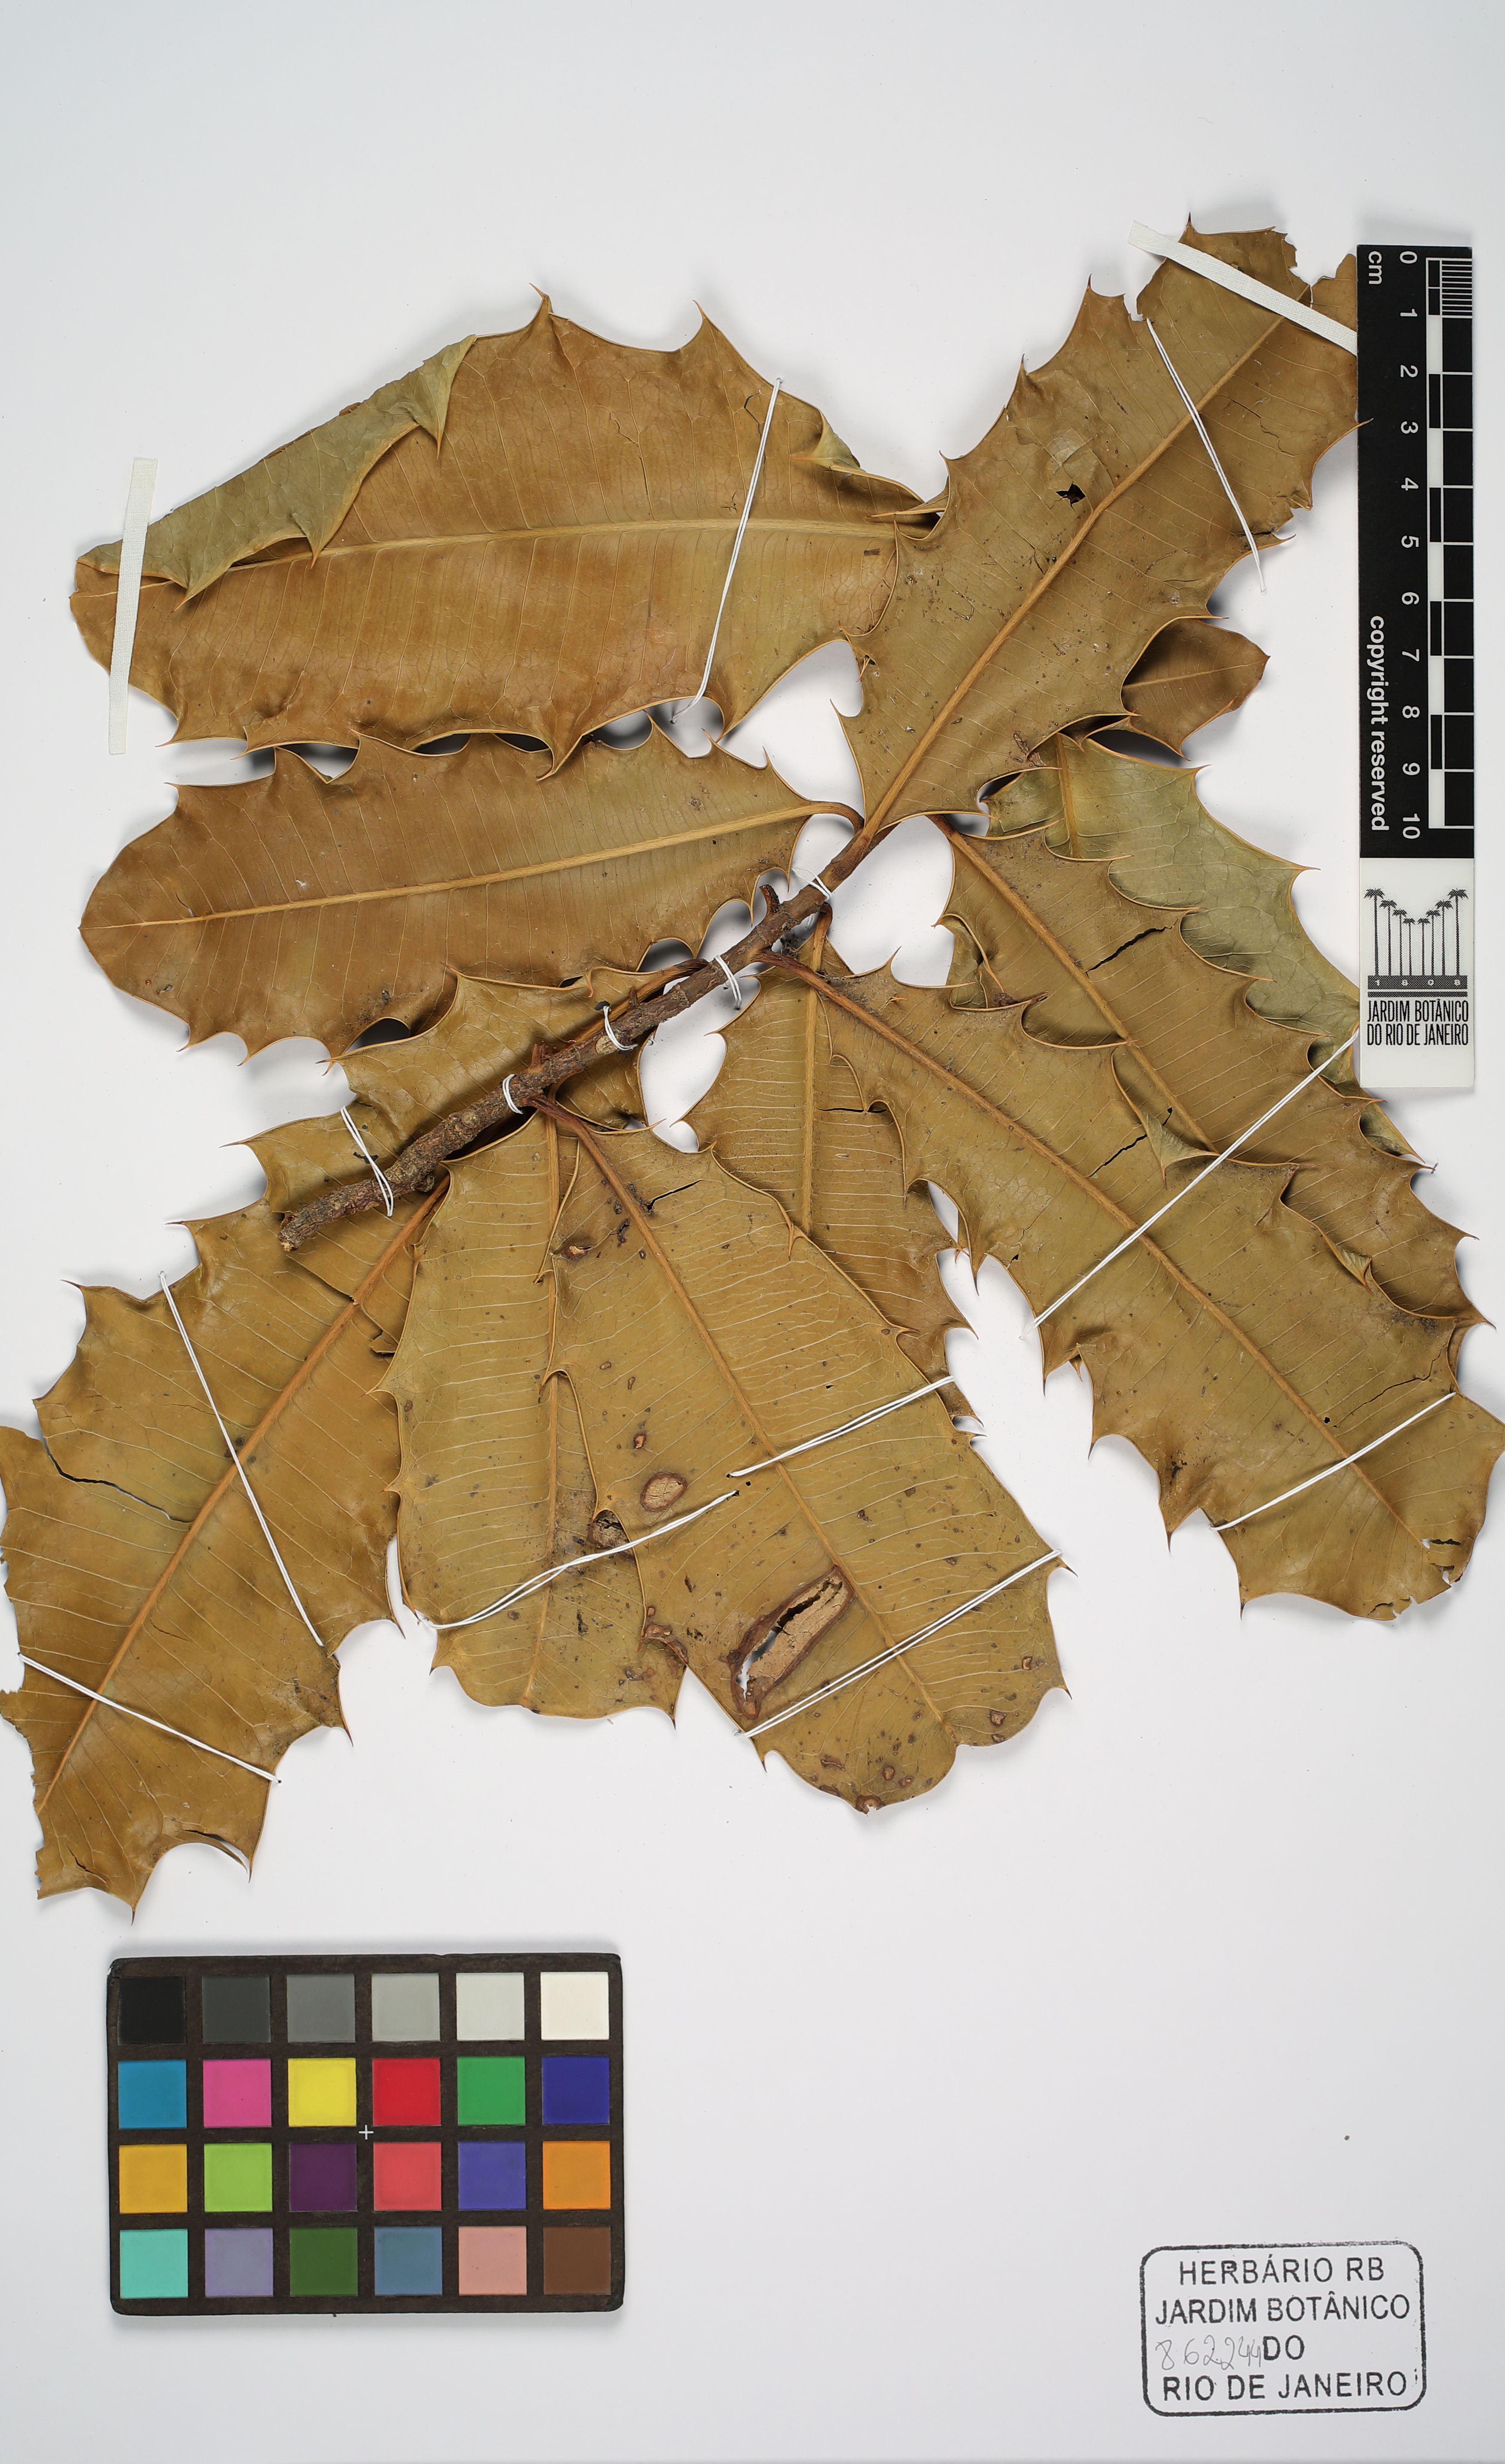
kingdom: Plantae
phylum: Tracheophyta
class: Magnoliopsida
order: Malpighiales
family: Euphorbiaceae
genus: Pachystroma
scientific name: Pachystroma longifolium
